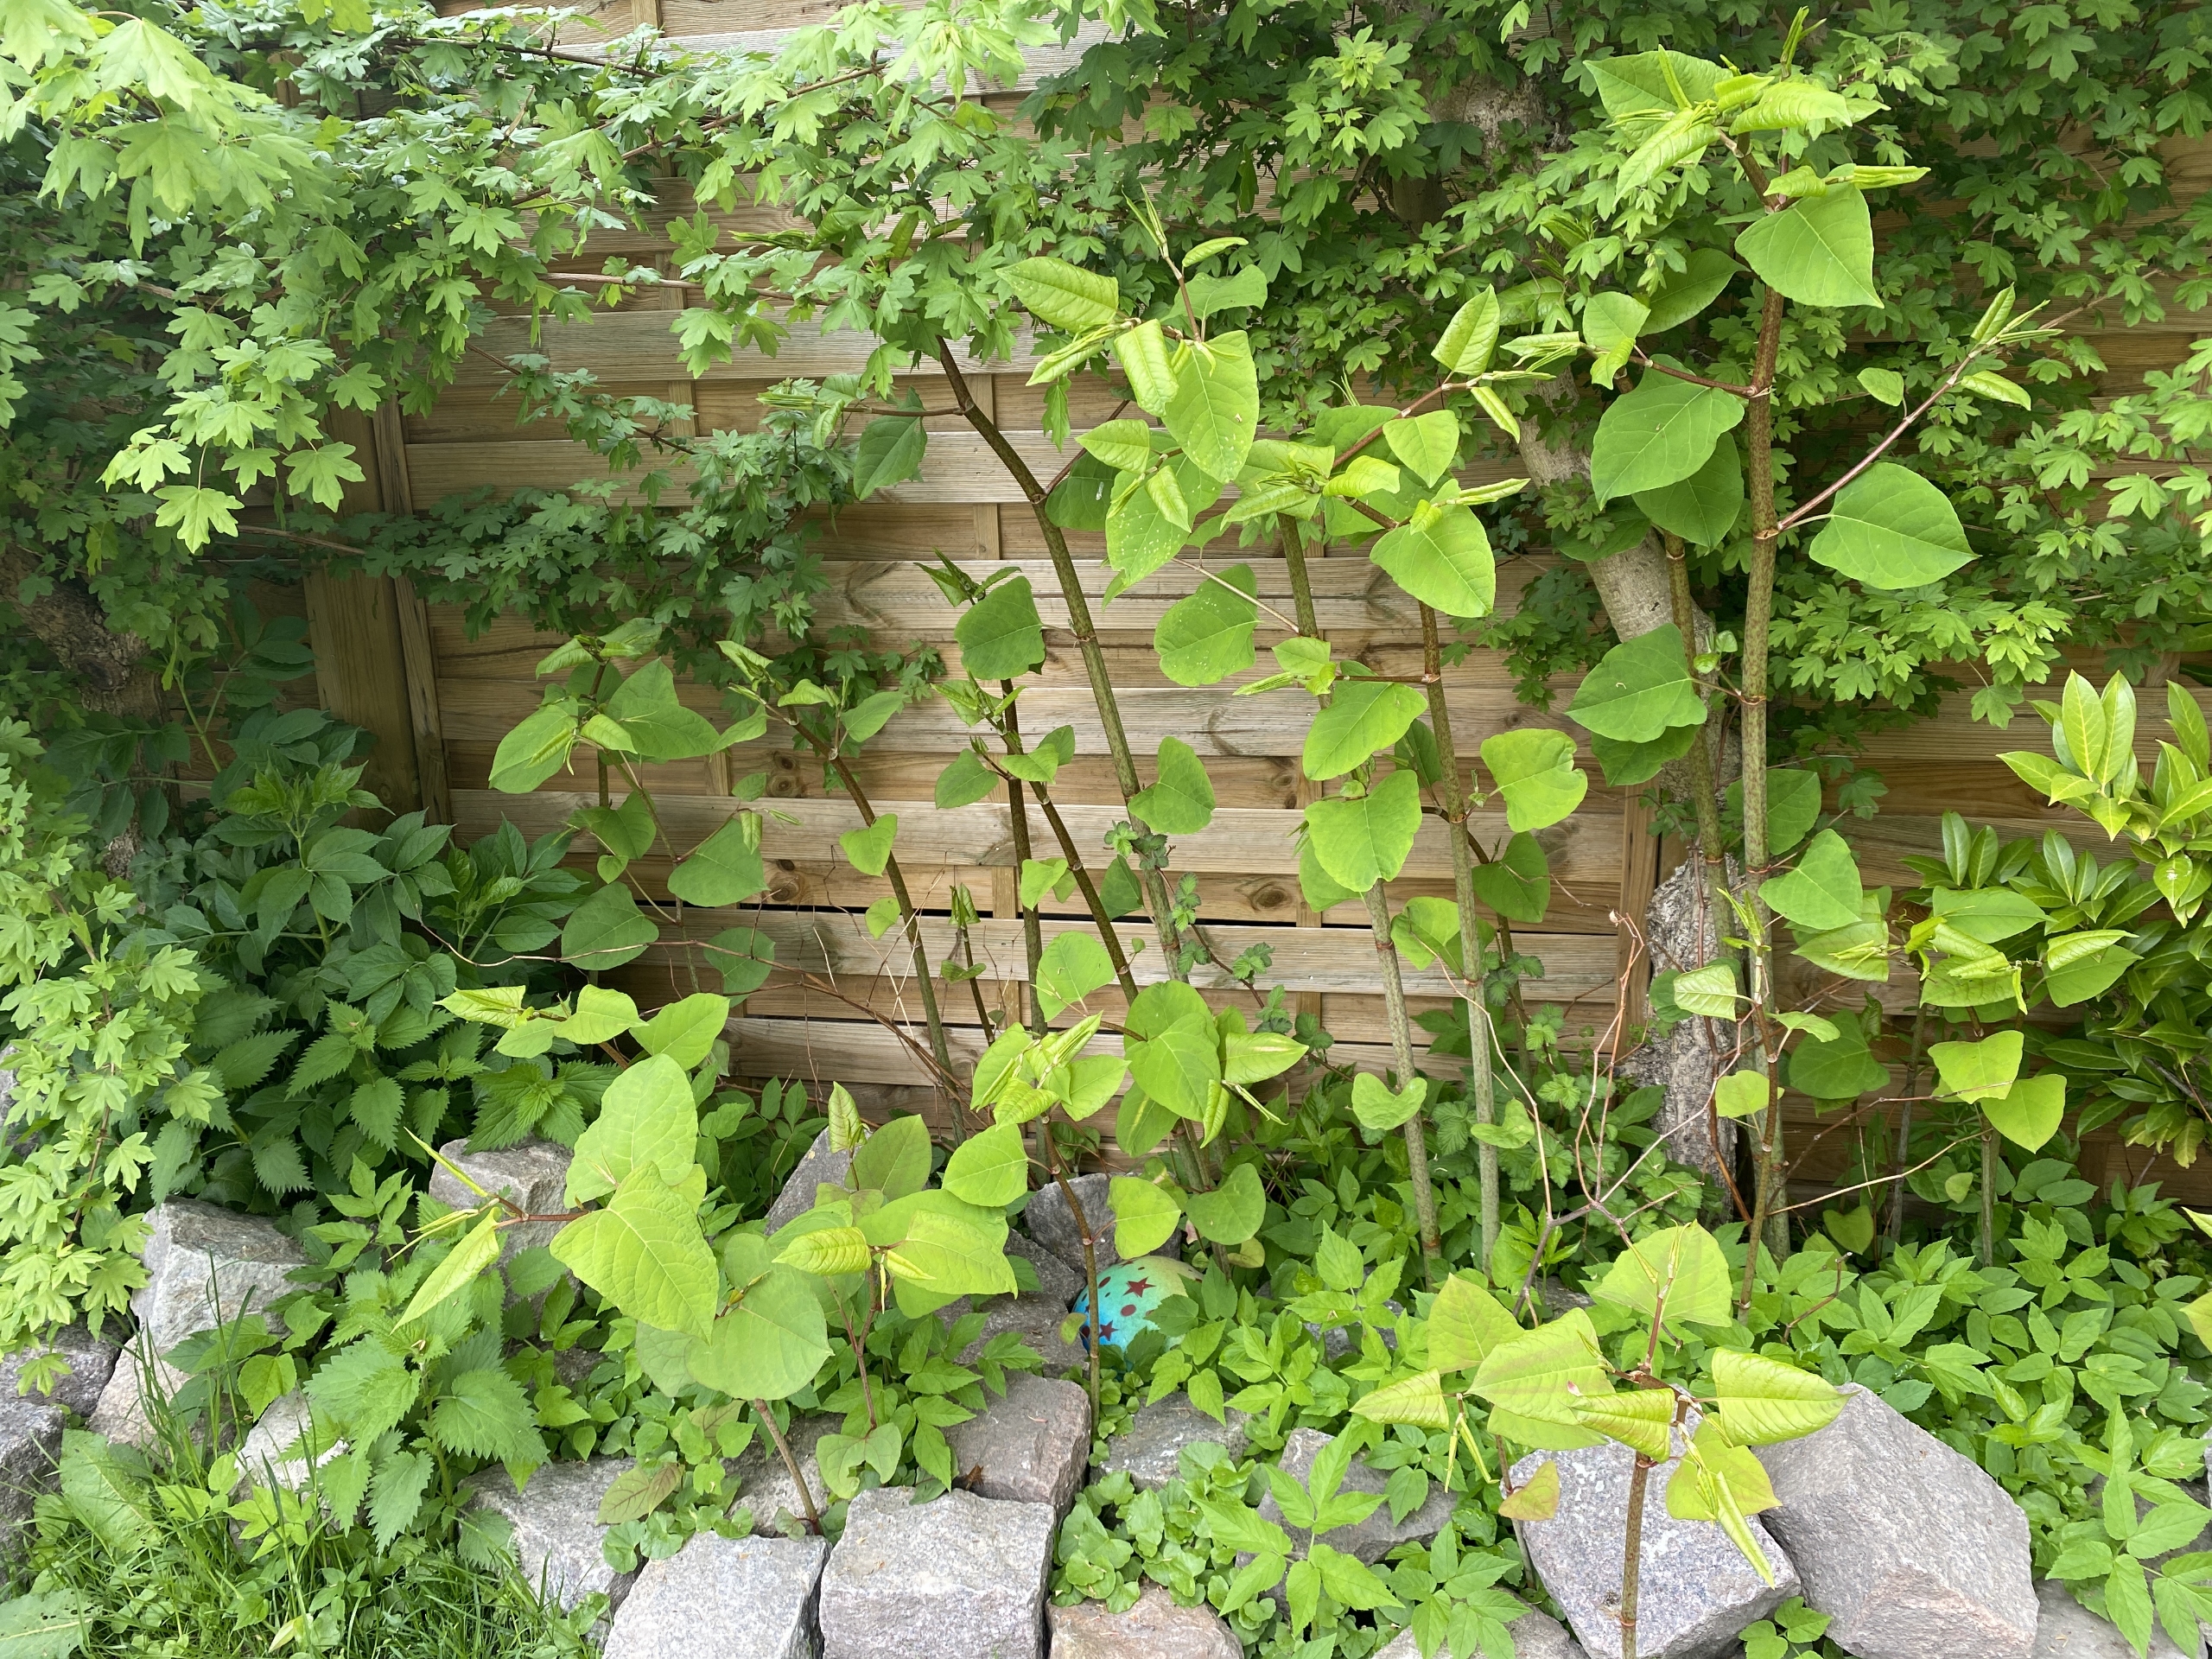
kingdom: Plantae
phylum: Tracheophyta
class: Magnoliopsida
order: Caryophyllales
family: Polygonaceae
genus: Reynoutria
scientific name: Reynoutria japonica
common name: Japan-pileurt
